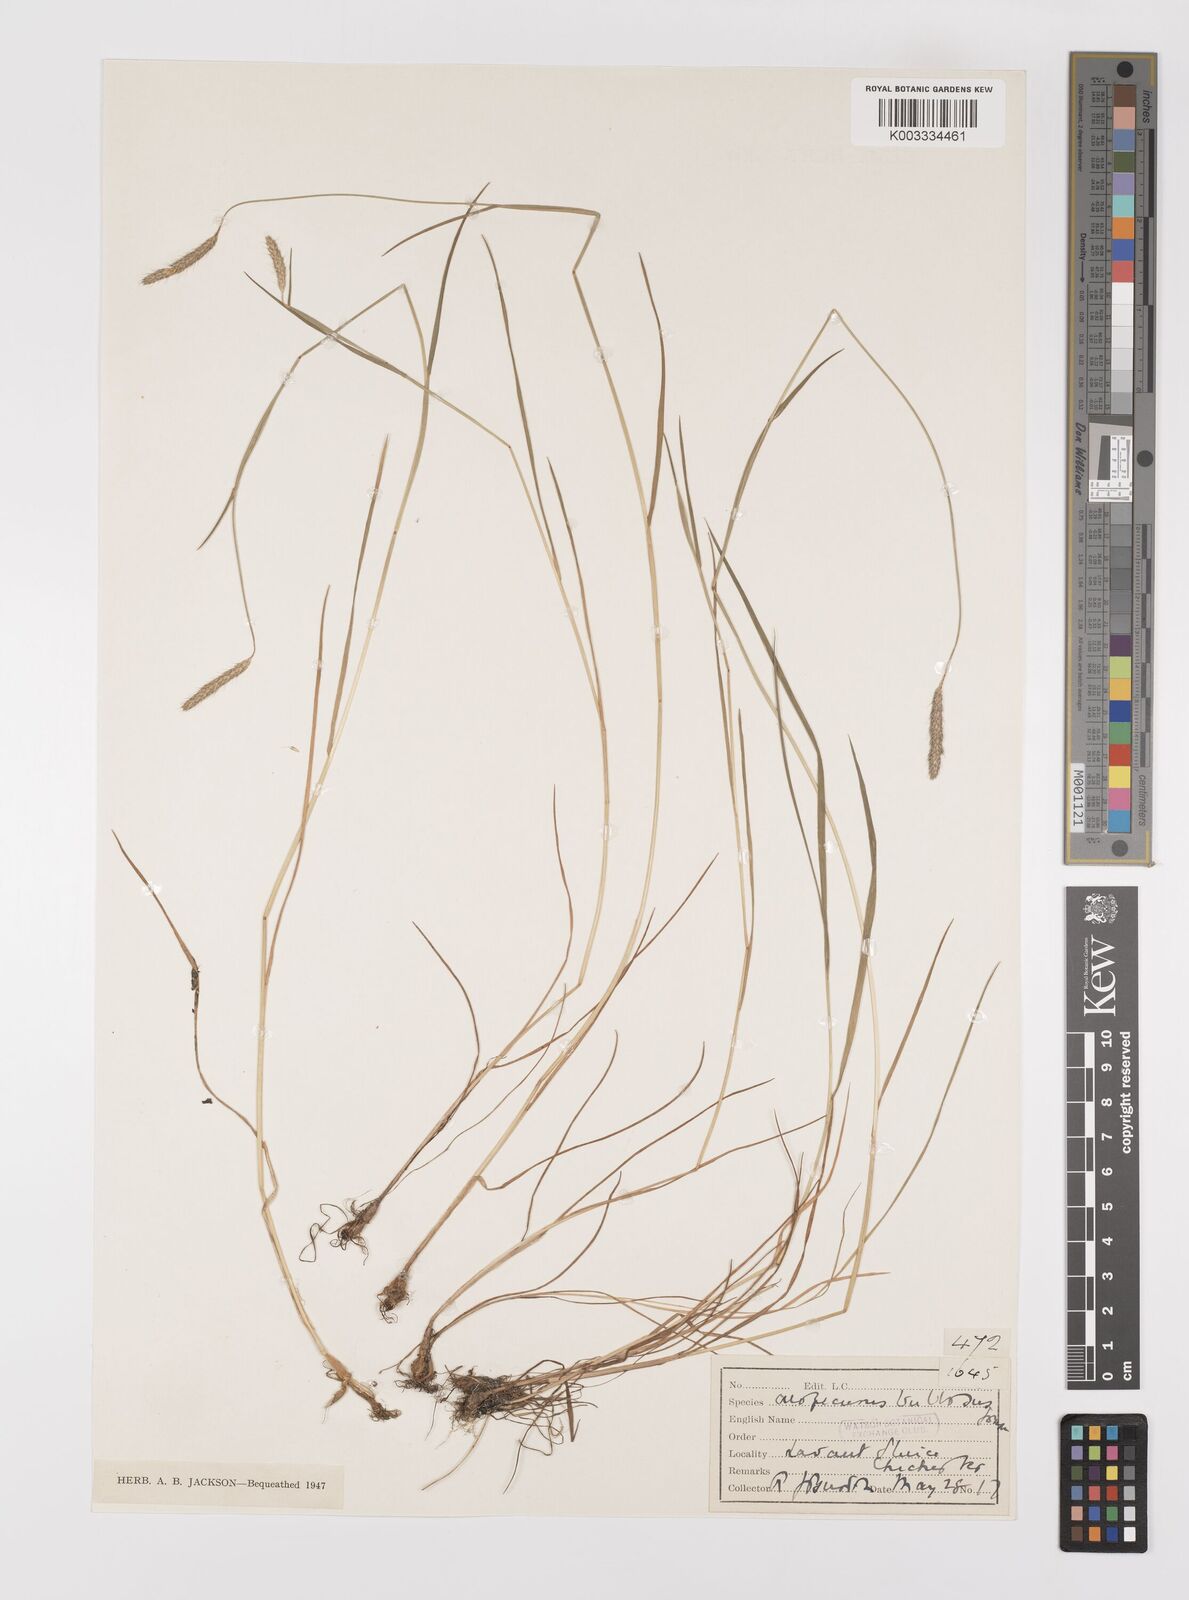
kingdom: Plantae
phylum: Tracheophyta
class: Liliopsida
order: Poales
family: Poaceae
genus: Alopecurus
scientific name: Alopecurus bulbosus
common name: Bulbous foxtail
